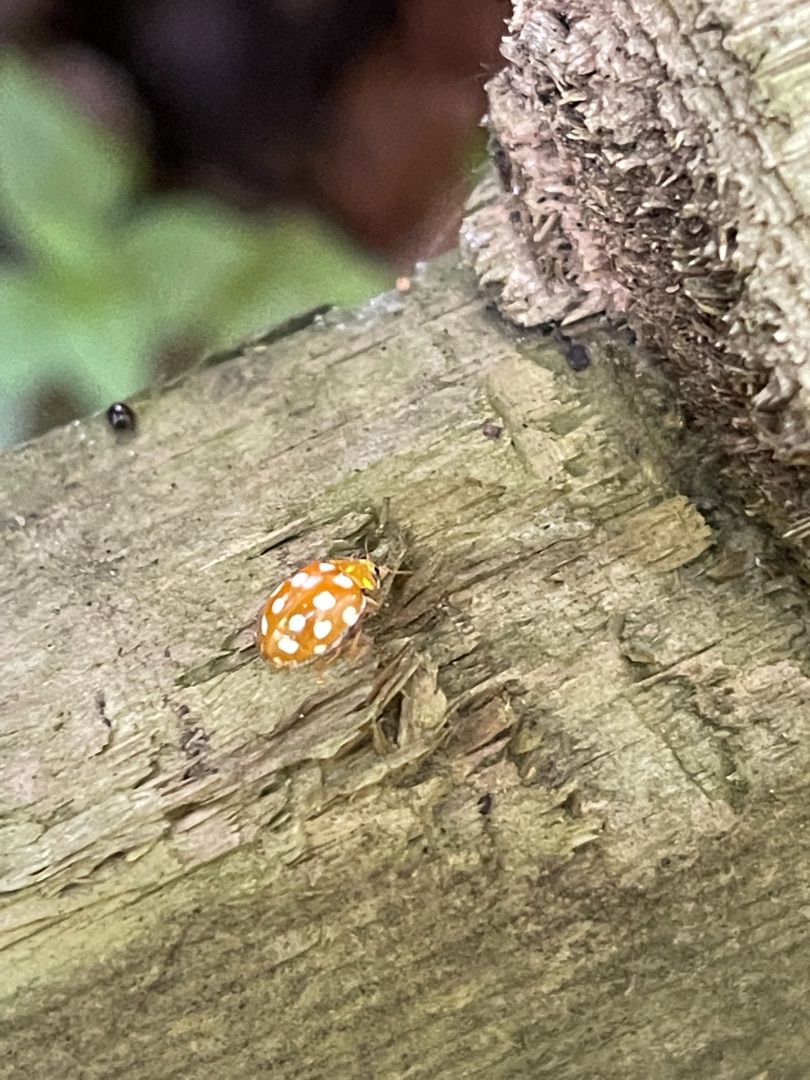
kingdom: Animalia
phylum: Arthropoda
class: Insecta
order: Coleoptera
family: Coccinellidae
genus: Halyzia
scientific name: Halyzia sedecimguttata
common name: Sekstenplettet mariehøne
